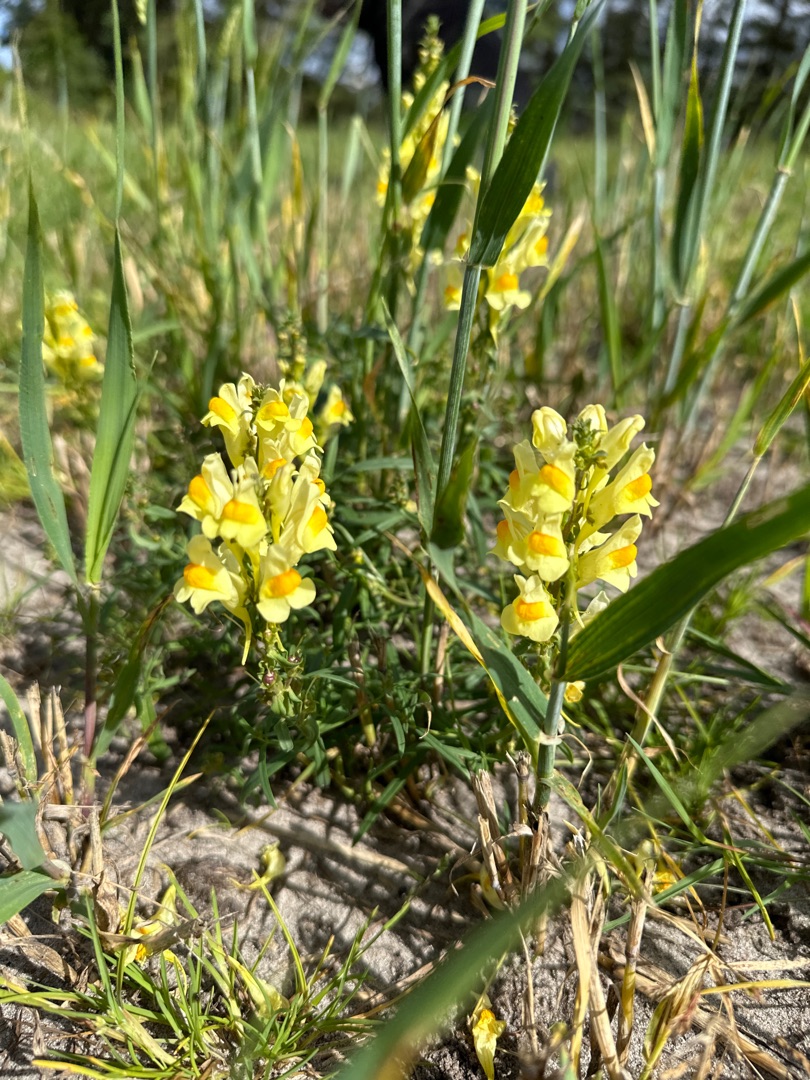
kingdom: Plantae
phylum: Tracheophyta
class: Magnoliopsida
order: Lamiales
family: Plantaginaceae
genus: Linaria
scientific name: Linaria vulgaris
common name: Almindelig torskemund
